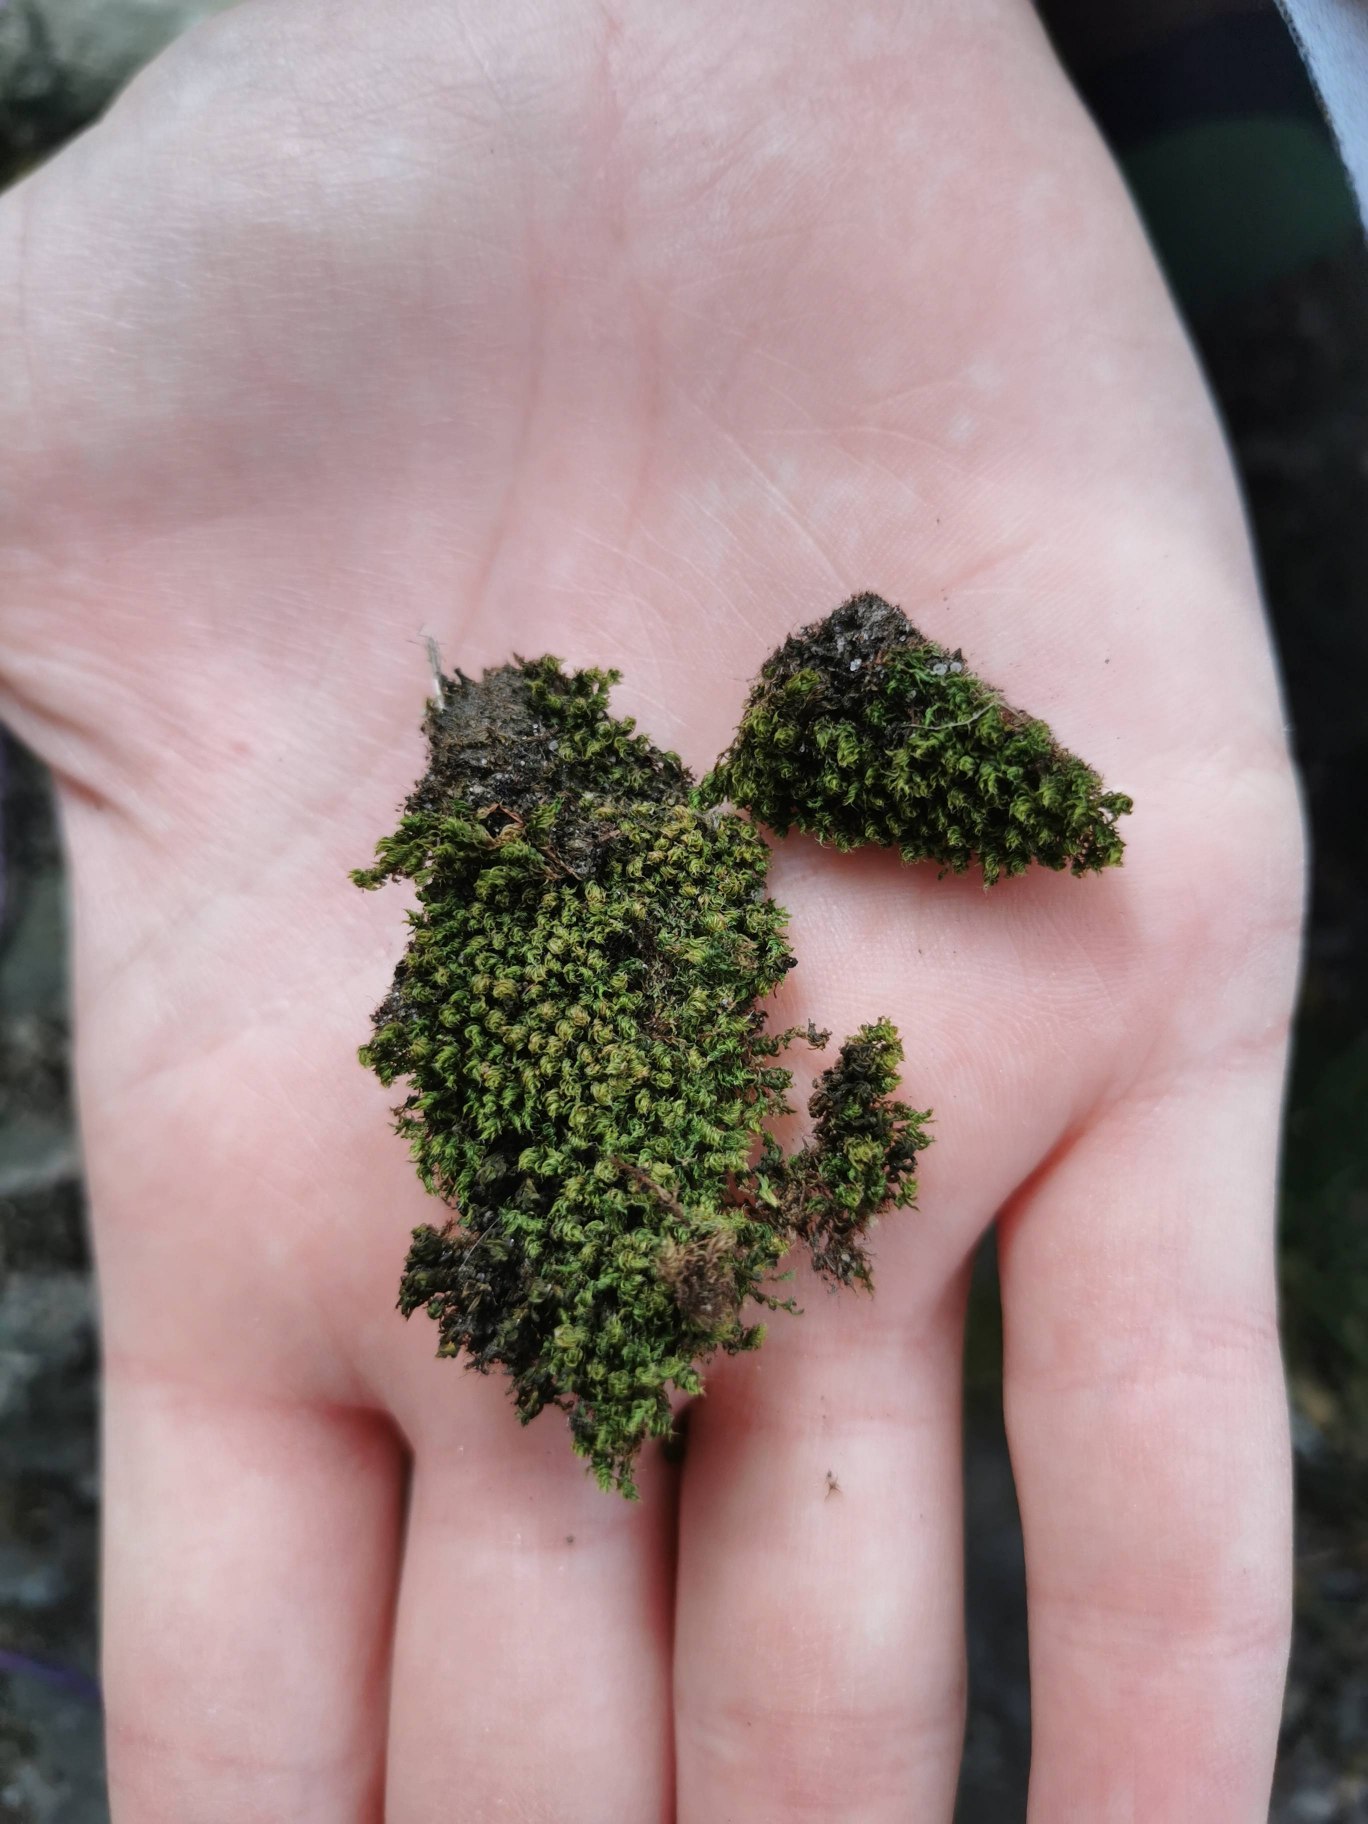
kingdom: Plantae
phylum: Bryophyta
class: Bryopsida
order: Bryales
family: Bryaceae
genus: Rosulabryum
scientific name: Rosulabryum capillare
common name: Hårspidset bryum
